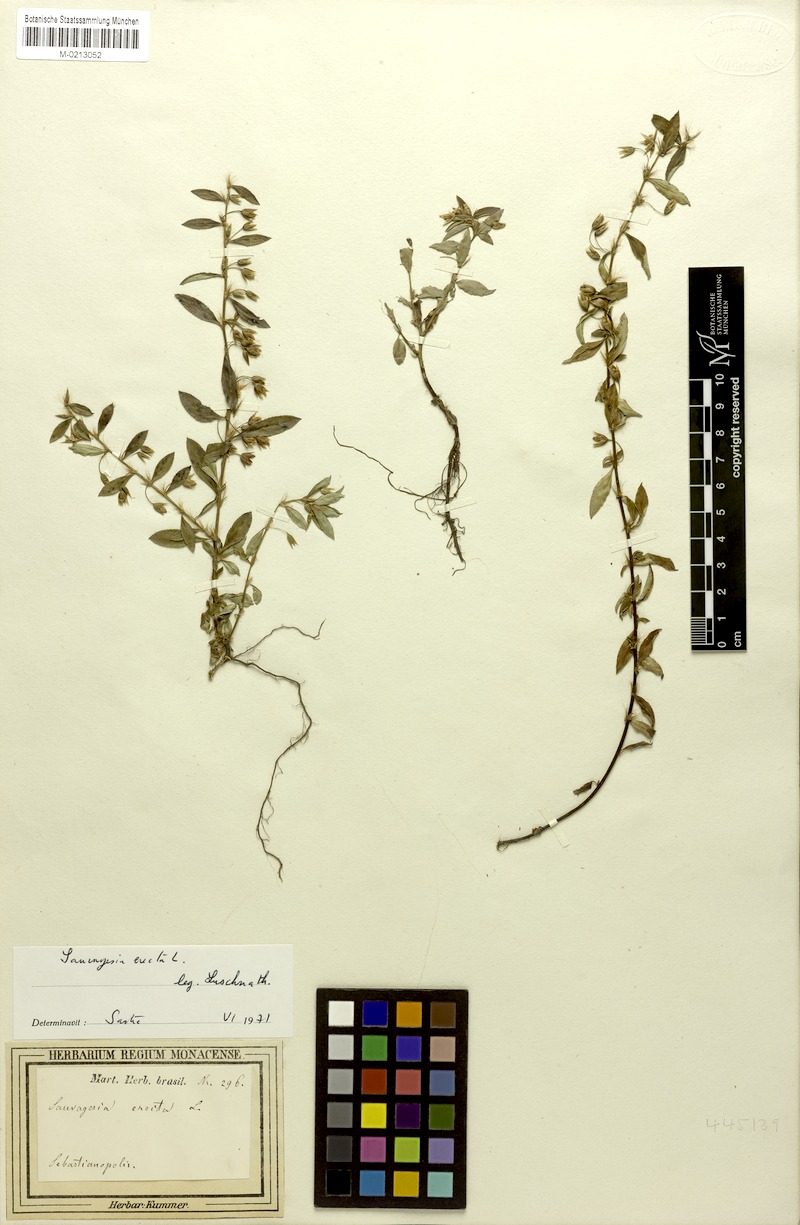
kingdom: Plantae
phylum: Tracheophyta
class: Magnoliopsida
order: Malpighiales
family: Ochnaceae
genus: Sauvagesia
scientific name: Sauvagesia erecta
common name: Creole tea
